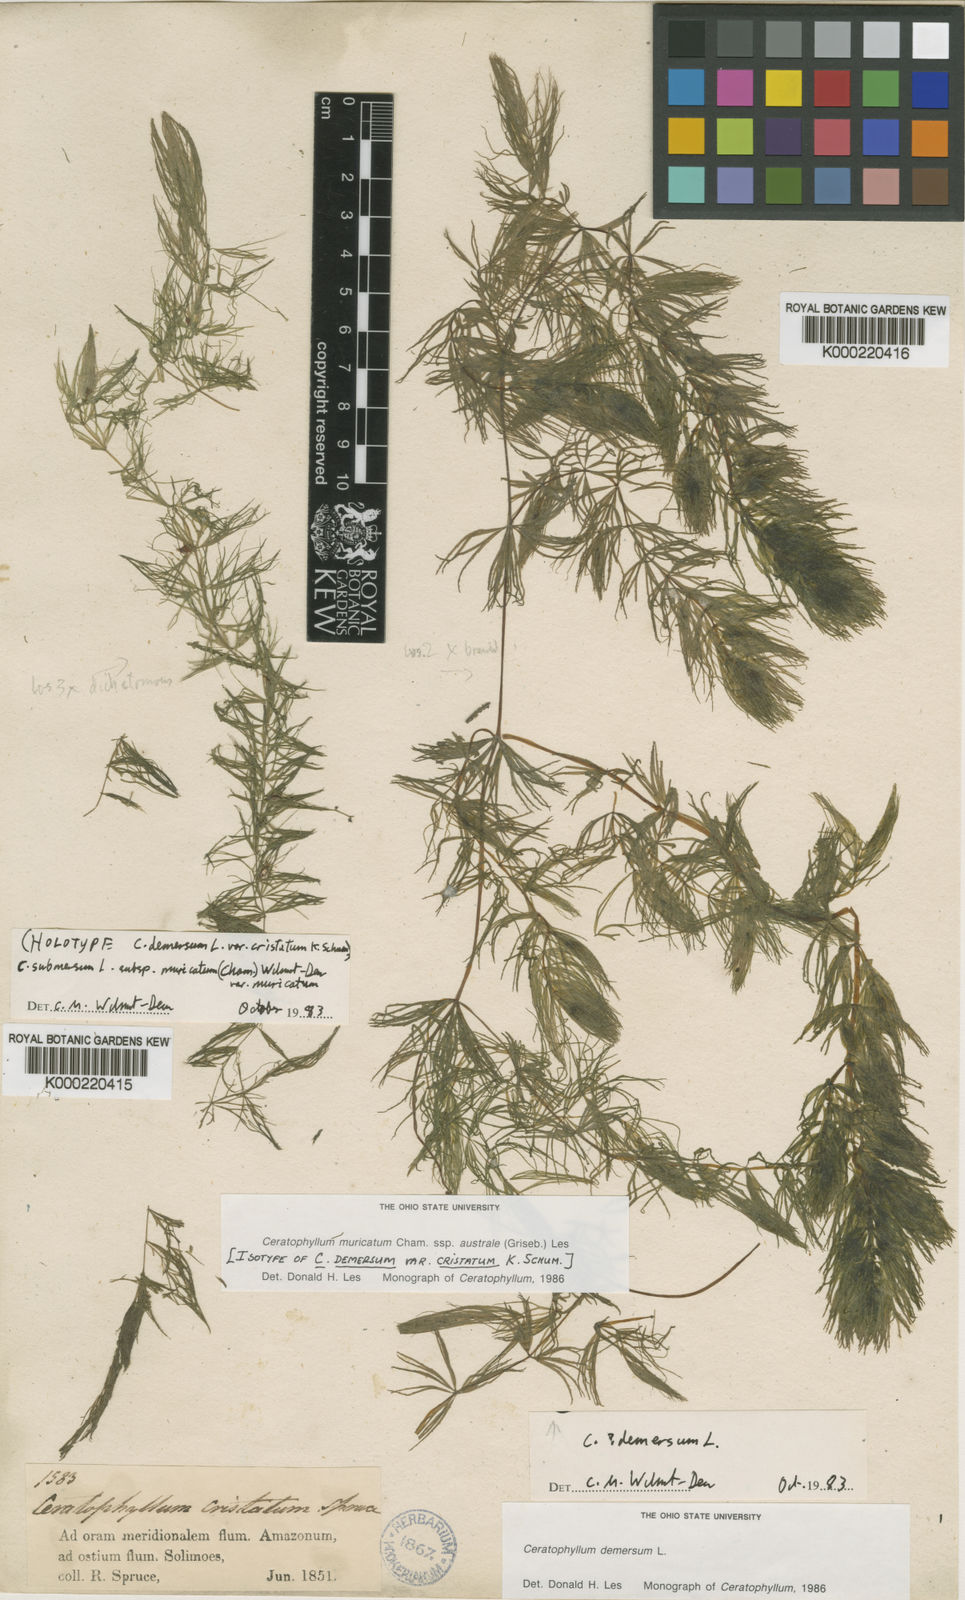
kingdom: Plantae
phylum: Tracheophyta
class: Magnoliopsida
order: Ceratophyllales
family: Ceratophyllaceae
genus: Ceratophyllum
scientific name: Ceratophyllum muricatum
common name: Prickly hornwort
